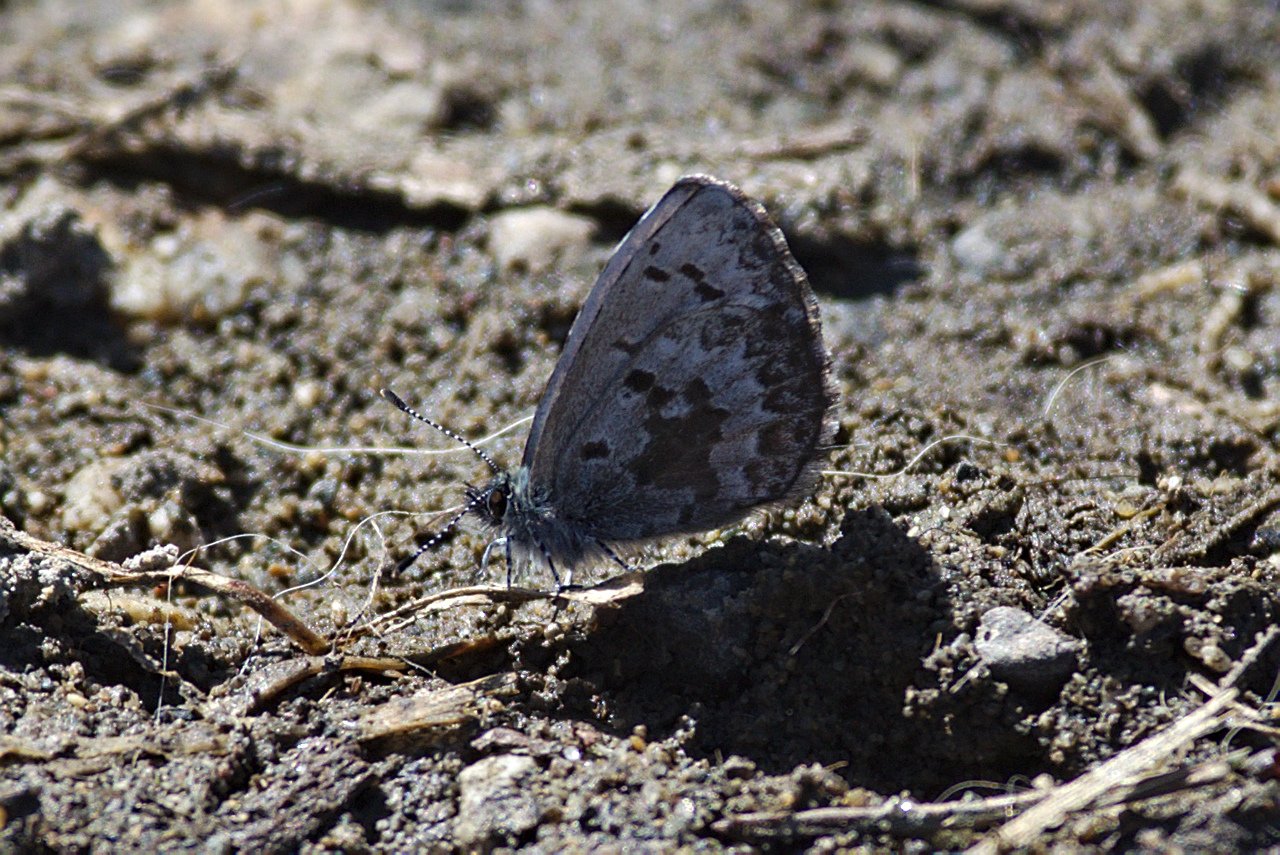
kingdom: Animalia
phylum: Arthropoda
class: Insecta
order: Lepidoptera
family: Lycaenidae
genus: Celastrina
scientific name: Celastrina lucia
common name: Northern Spring Azure
